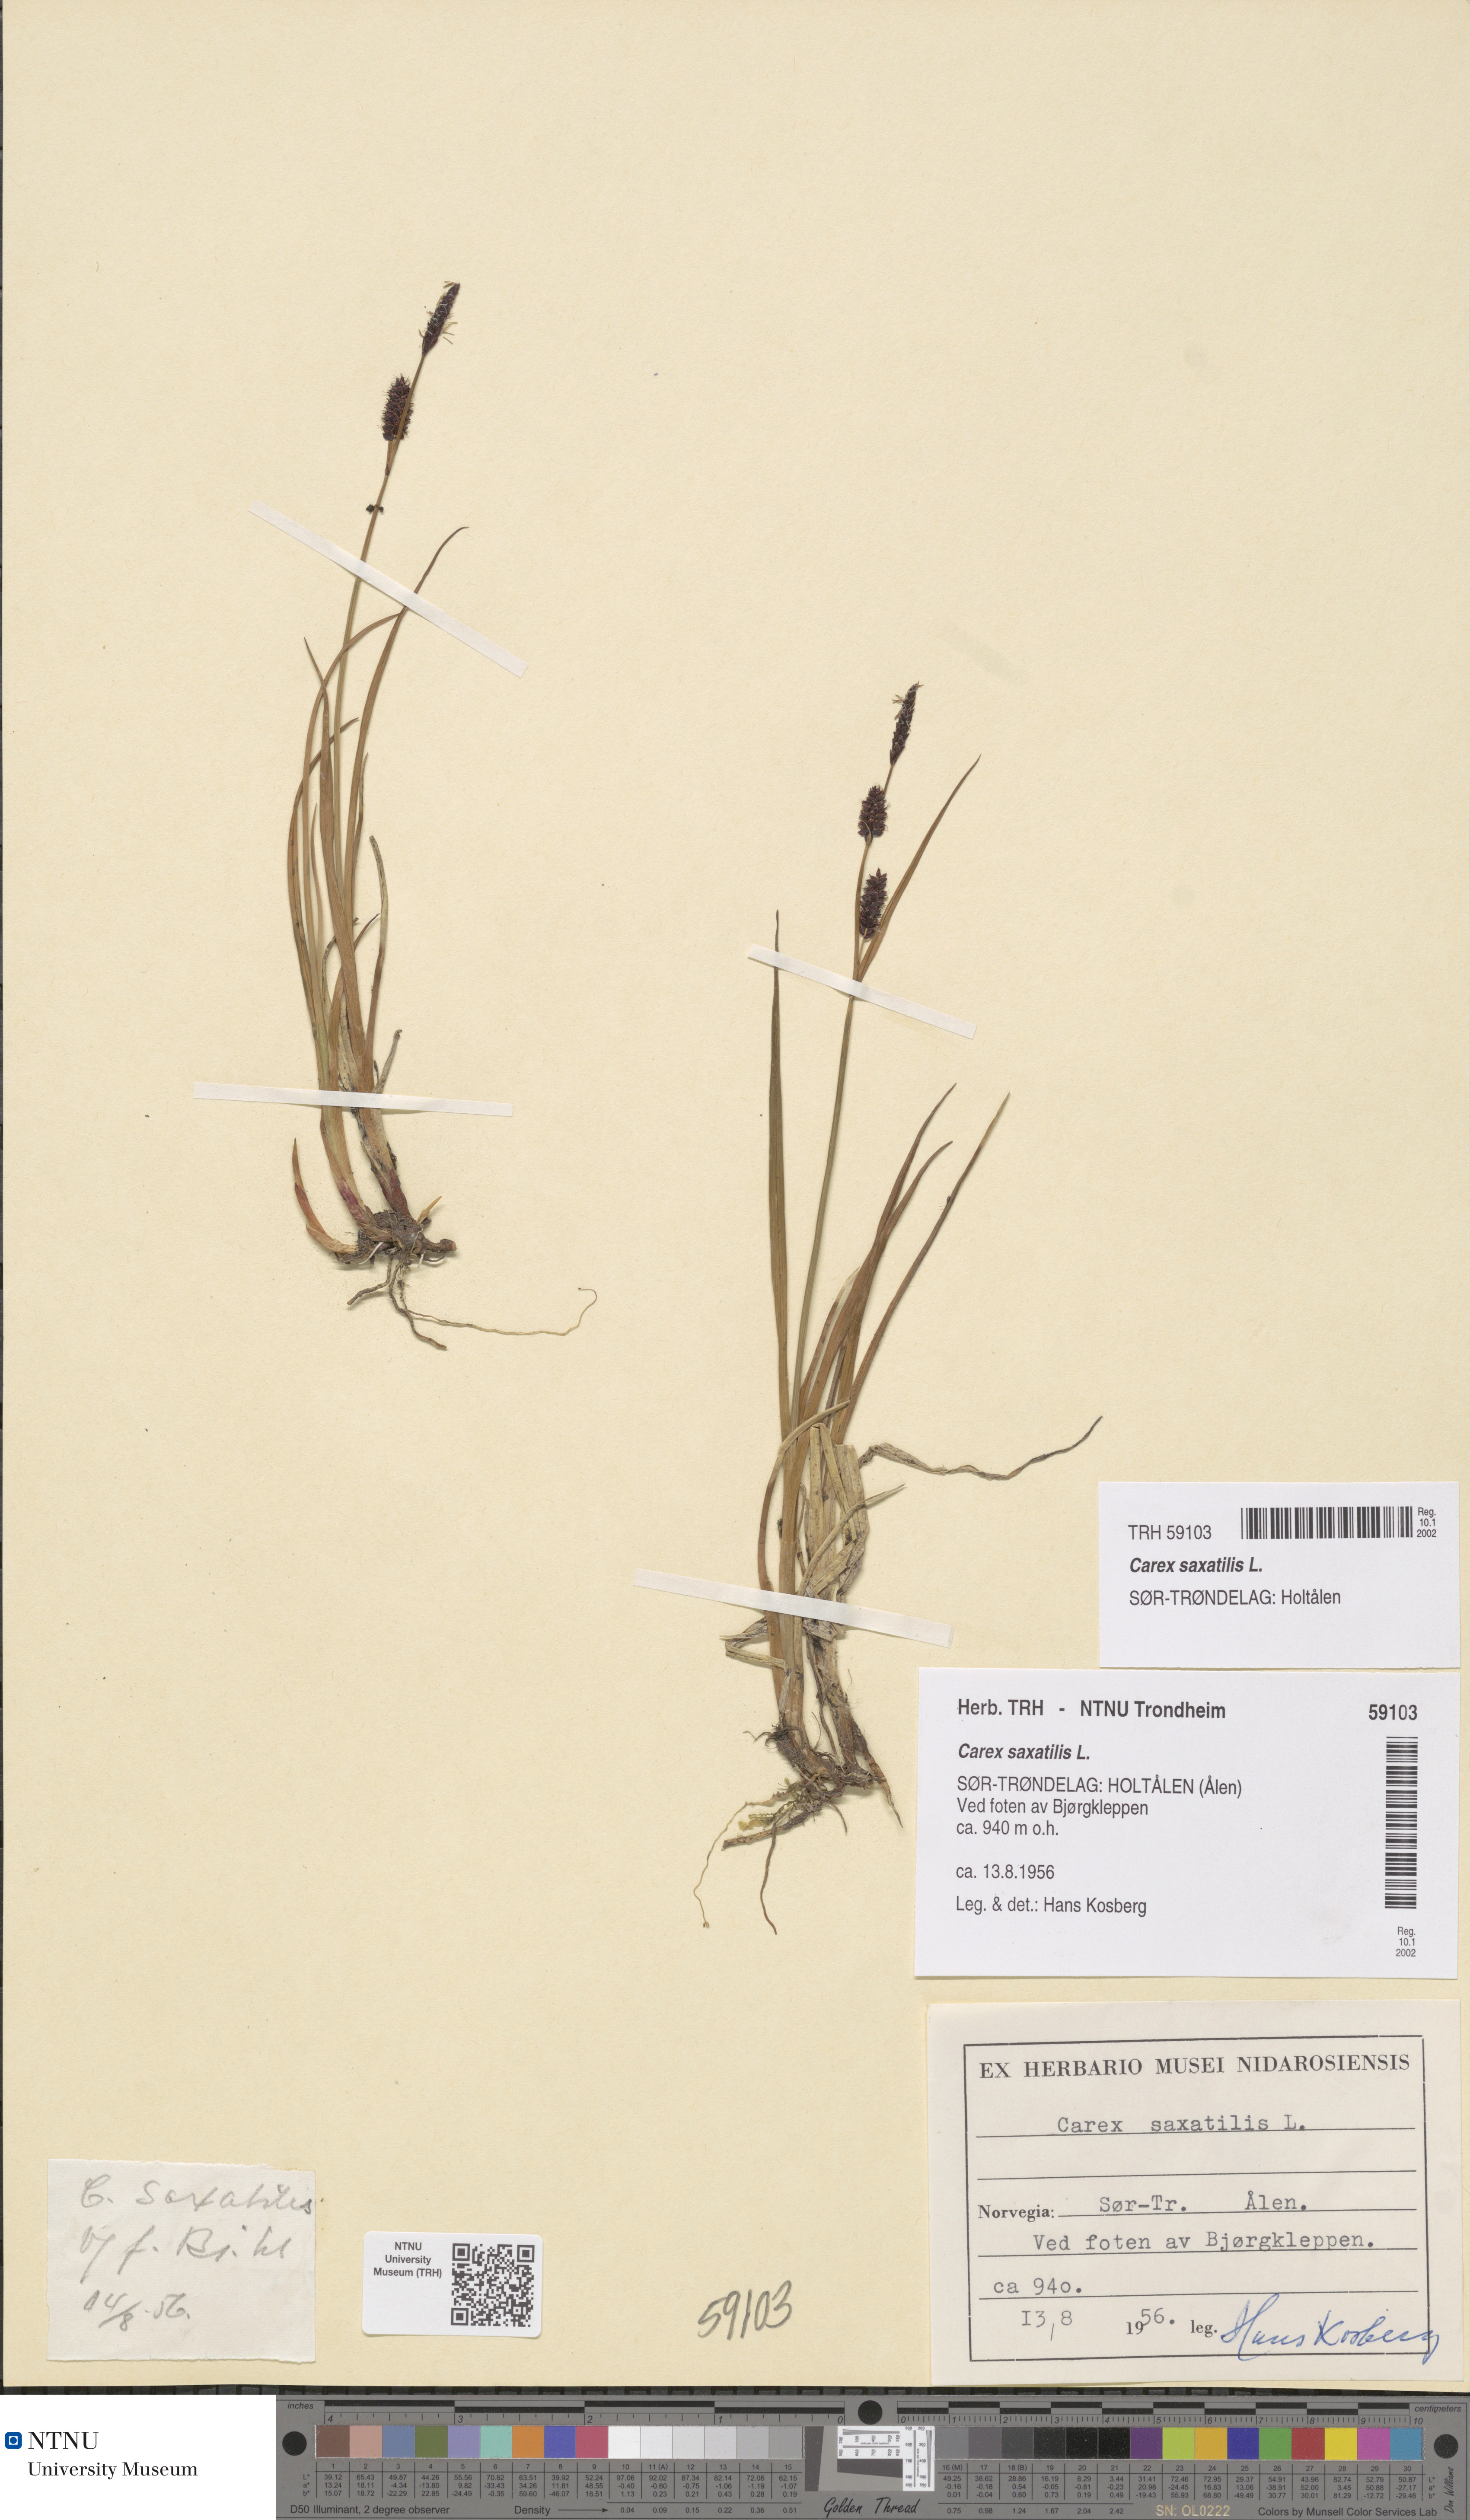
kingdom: Plantae
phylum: Tracheophyta
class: Liliopsida
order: Poales
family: Cyperaceae
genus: Carex
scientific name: Carex saxatilis
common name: Russet sedge
